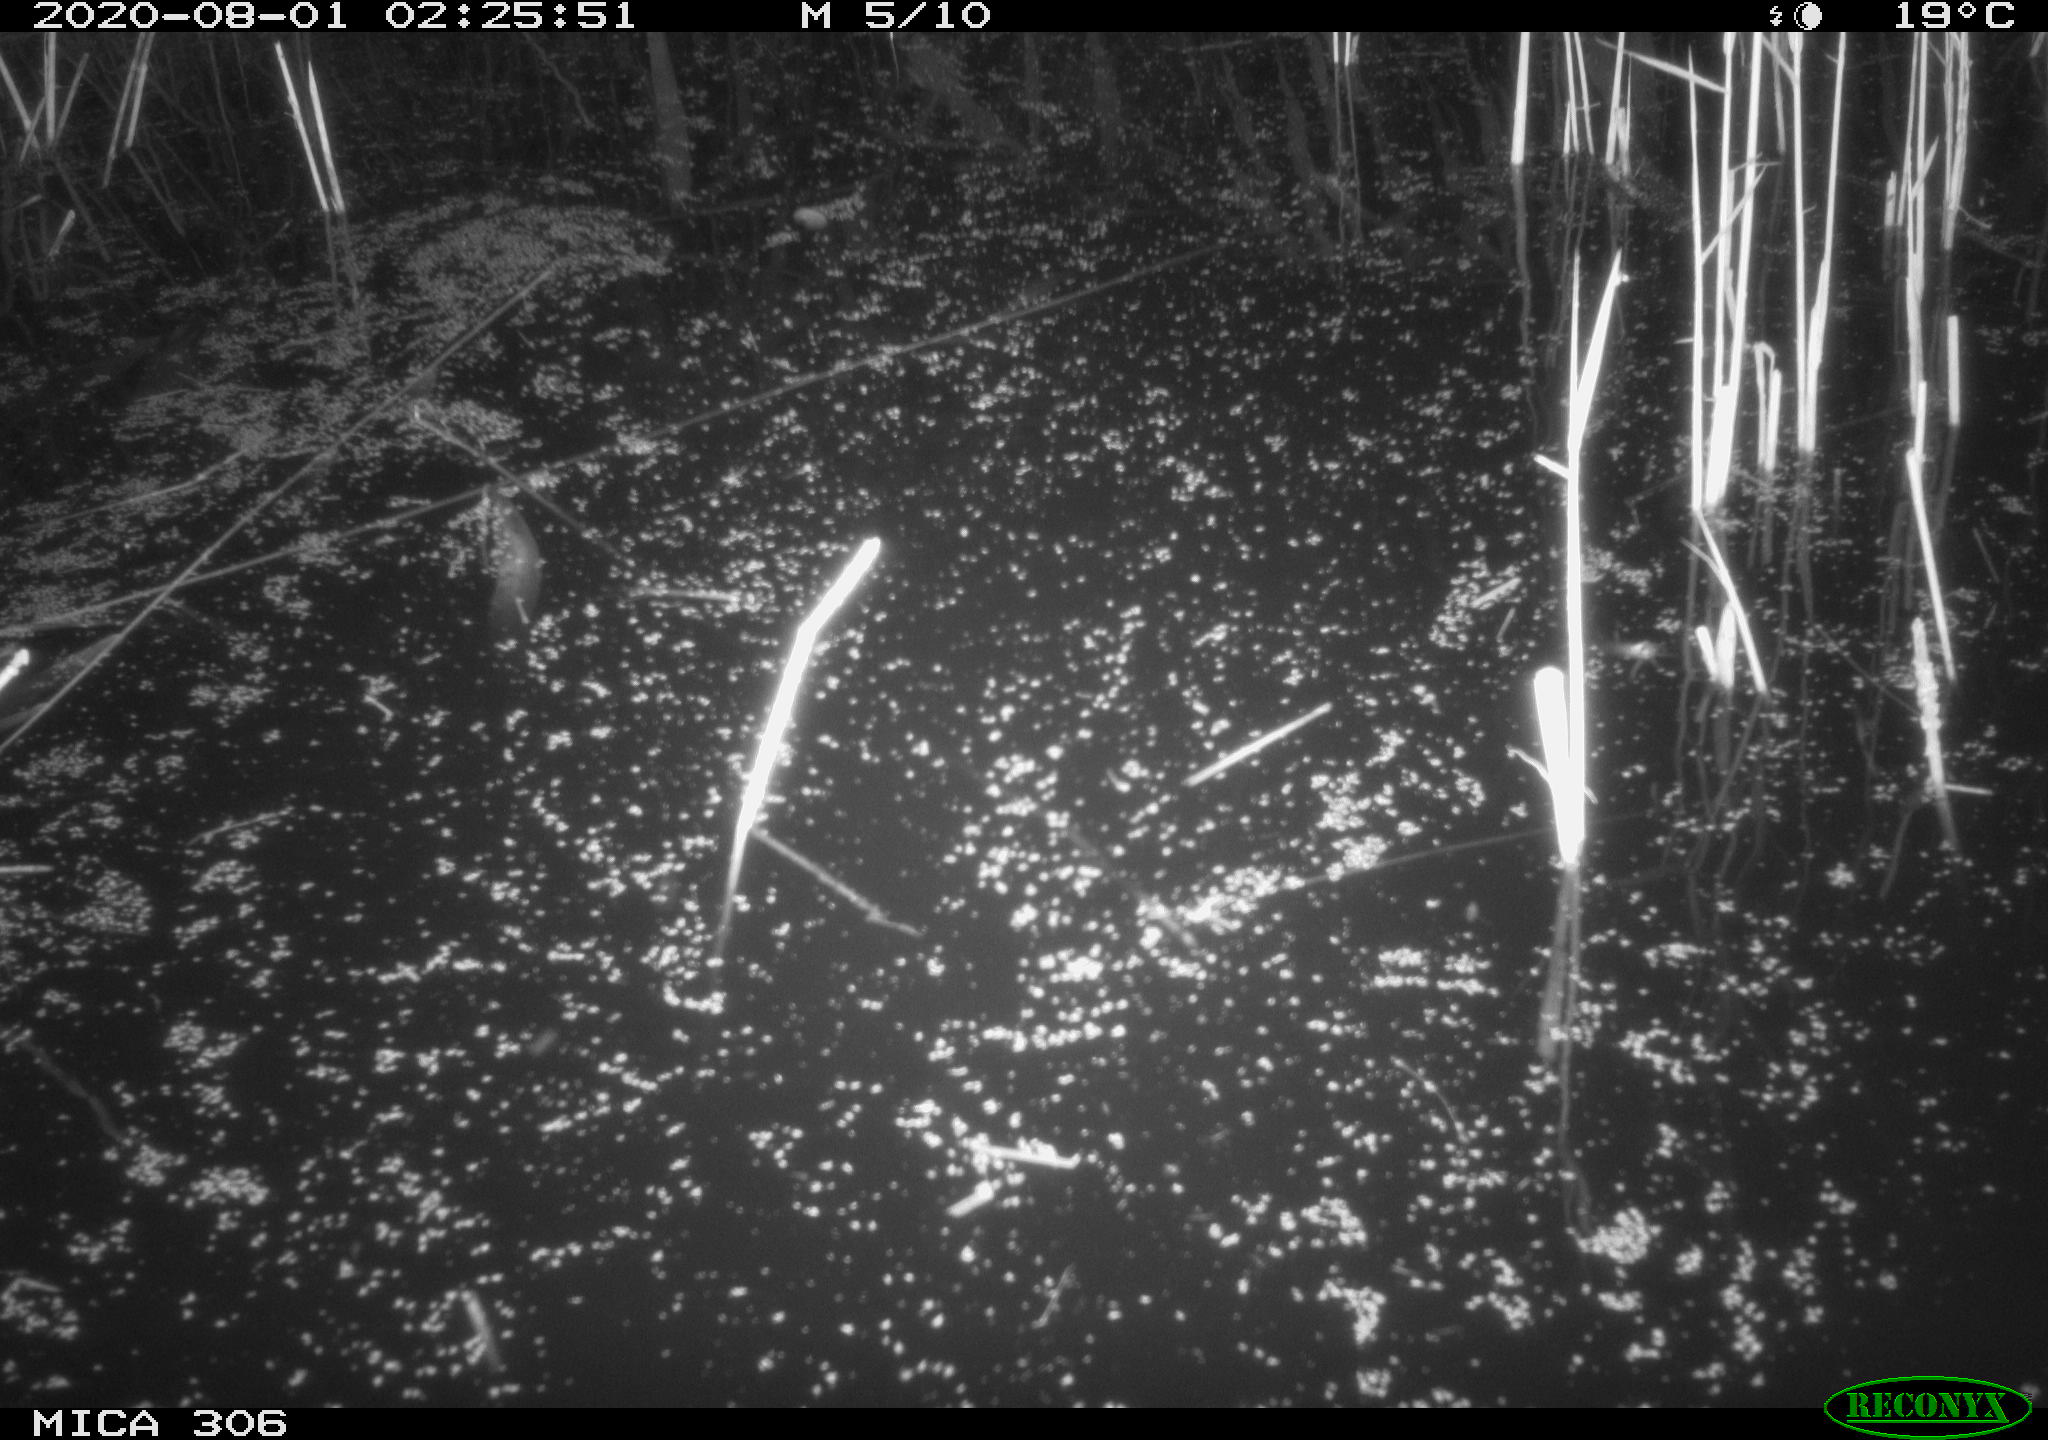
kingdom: Animalia
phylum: Chordata
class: Mammalia
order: Rodentia
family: Cricetidae
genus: Ondatra
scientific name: Ondatra zibethicus
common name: Muskrat
